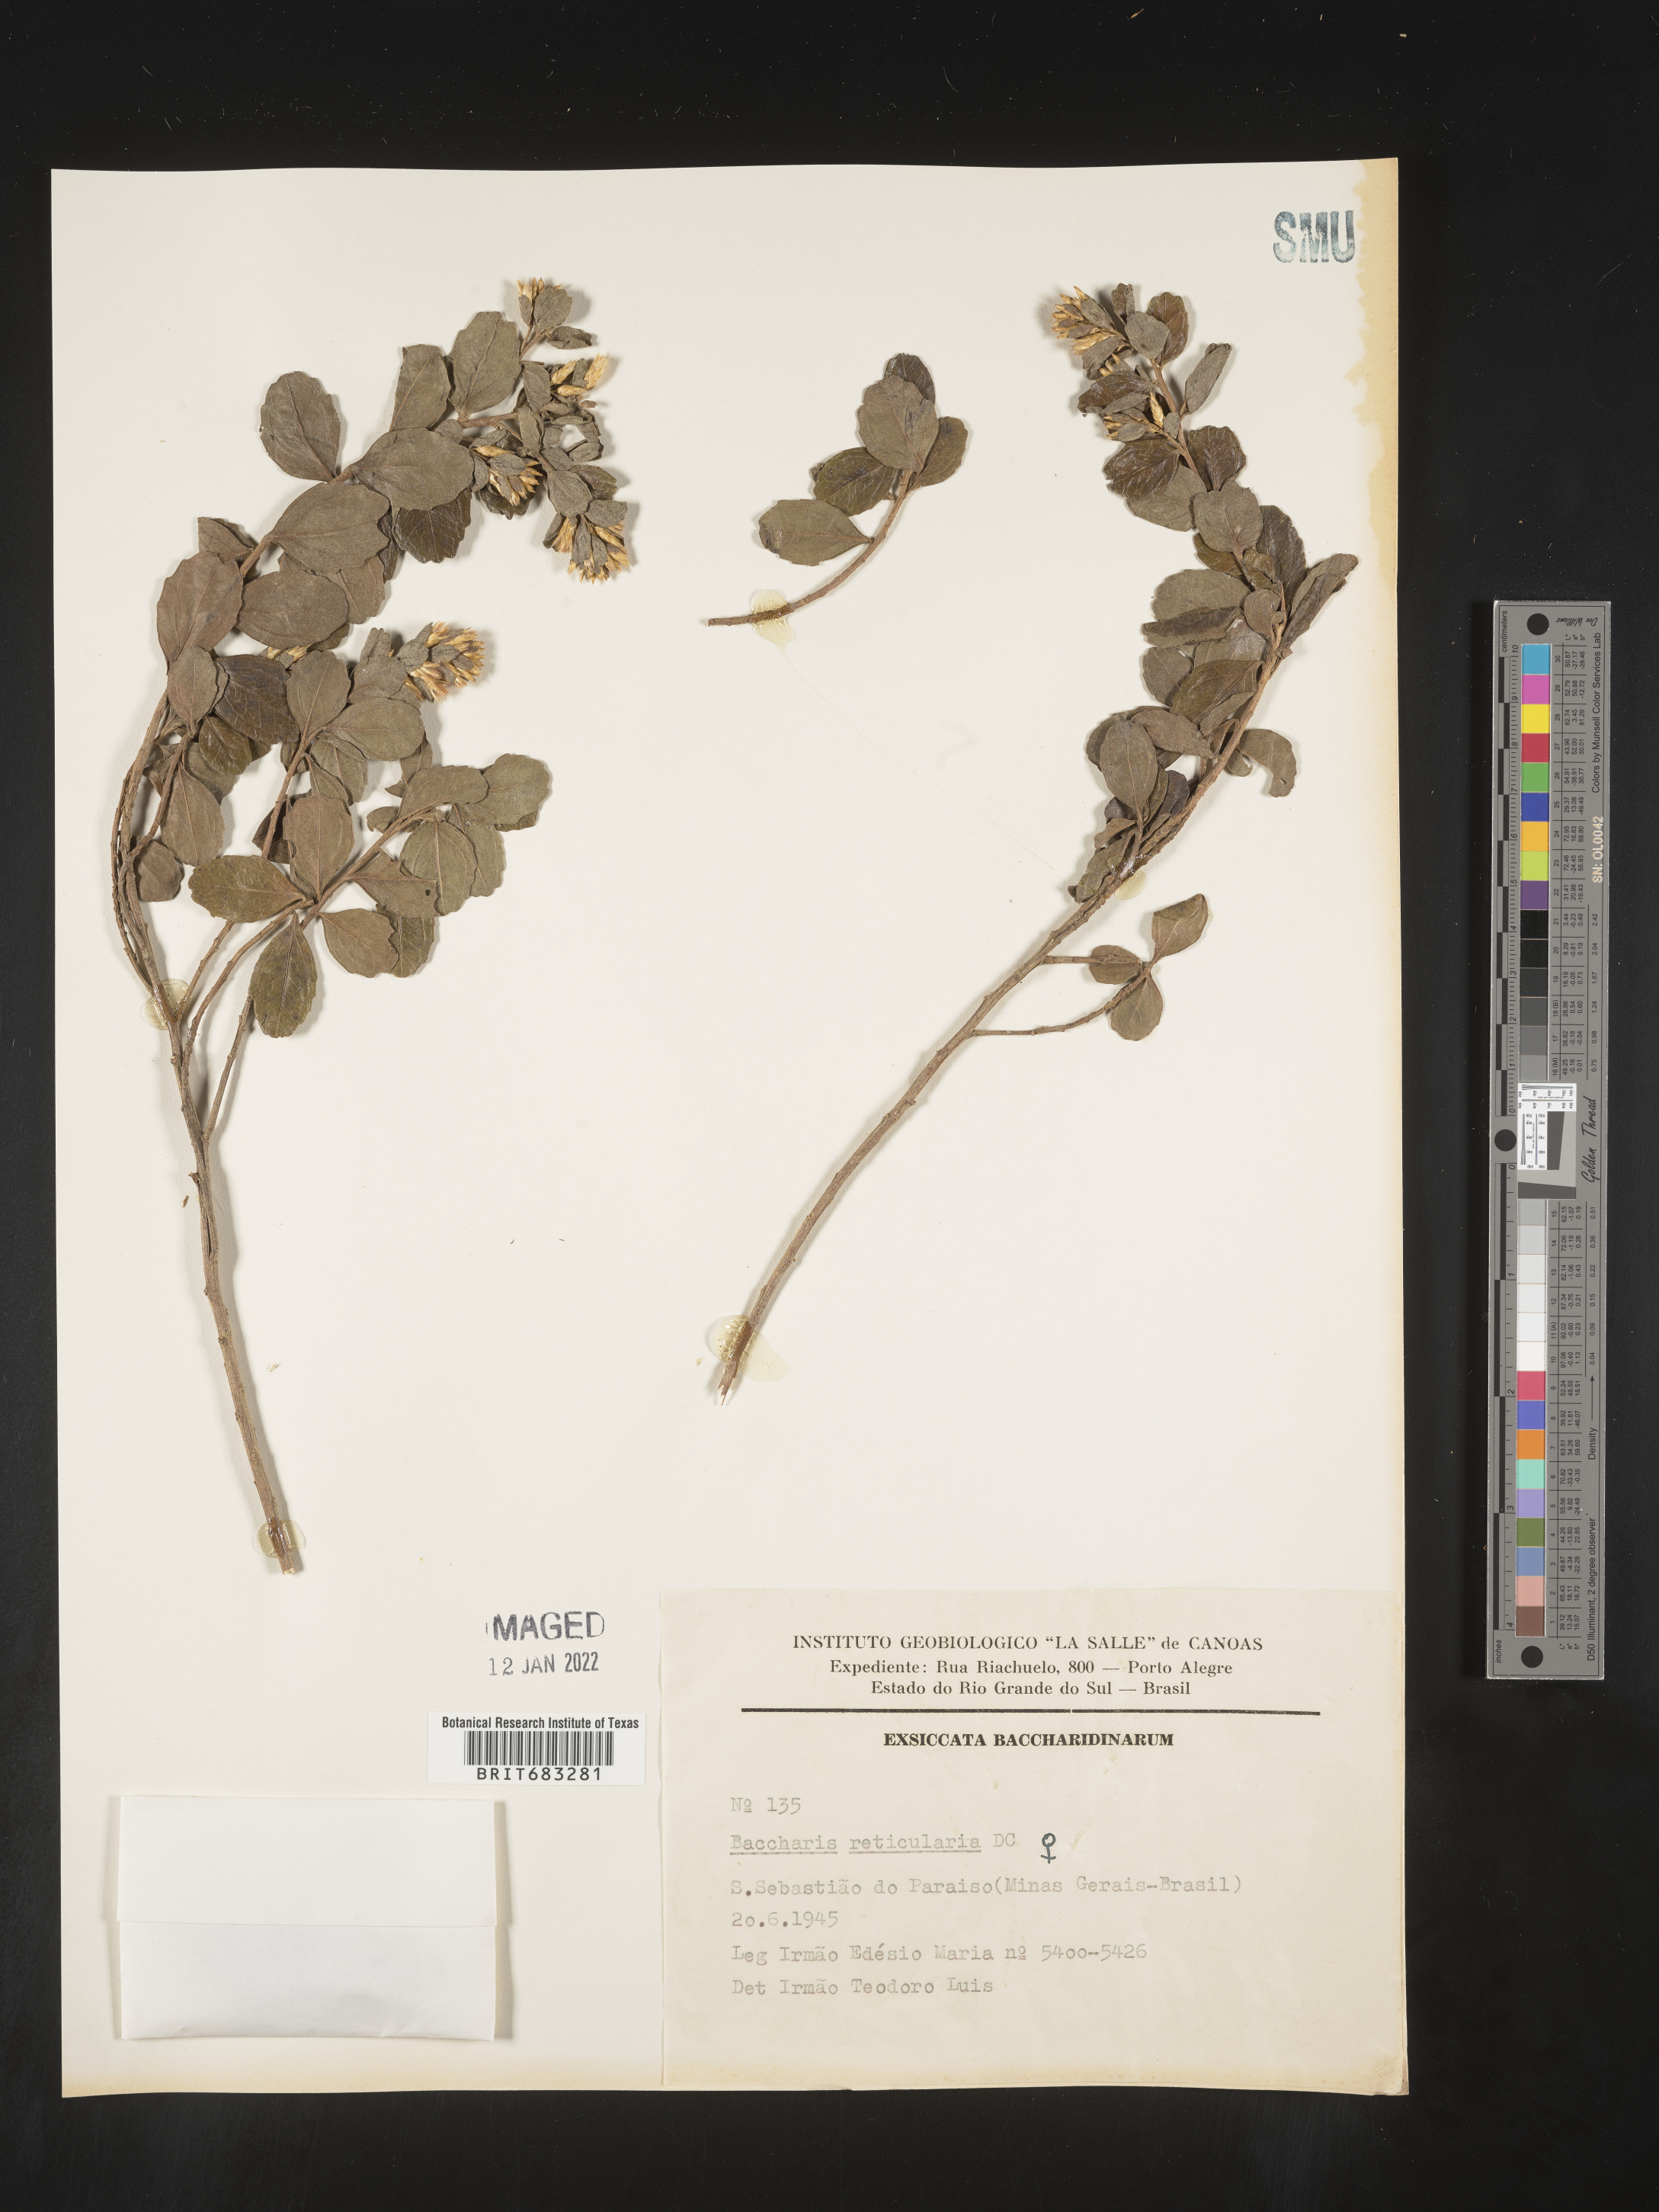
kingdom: Plantae
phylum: Tracheophyta
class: Magnoliopsida
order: Asterales
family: Asteraceae
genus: Baccharis
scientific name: Baccharis
